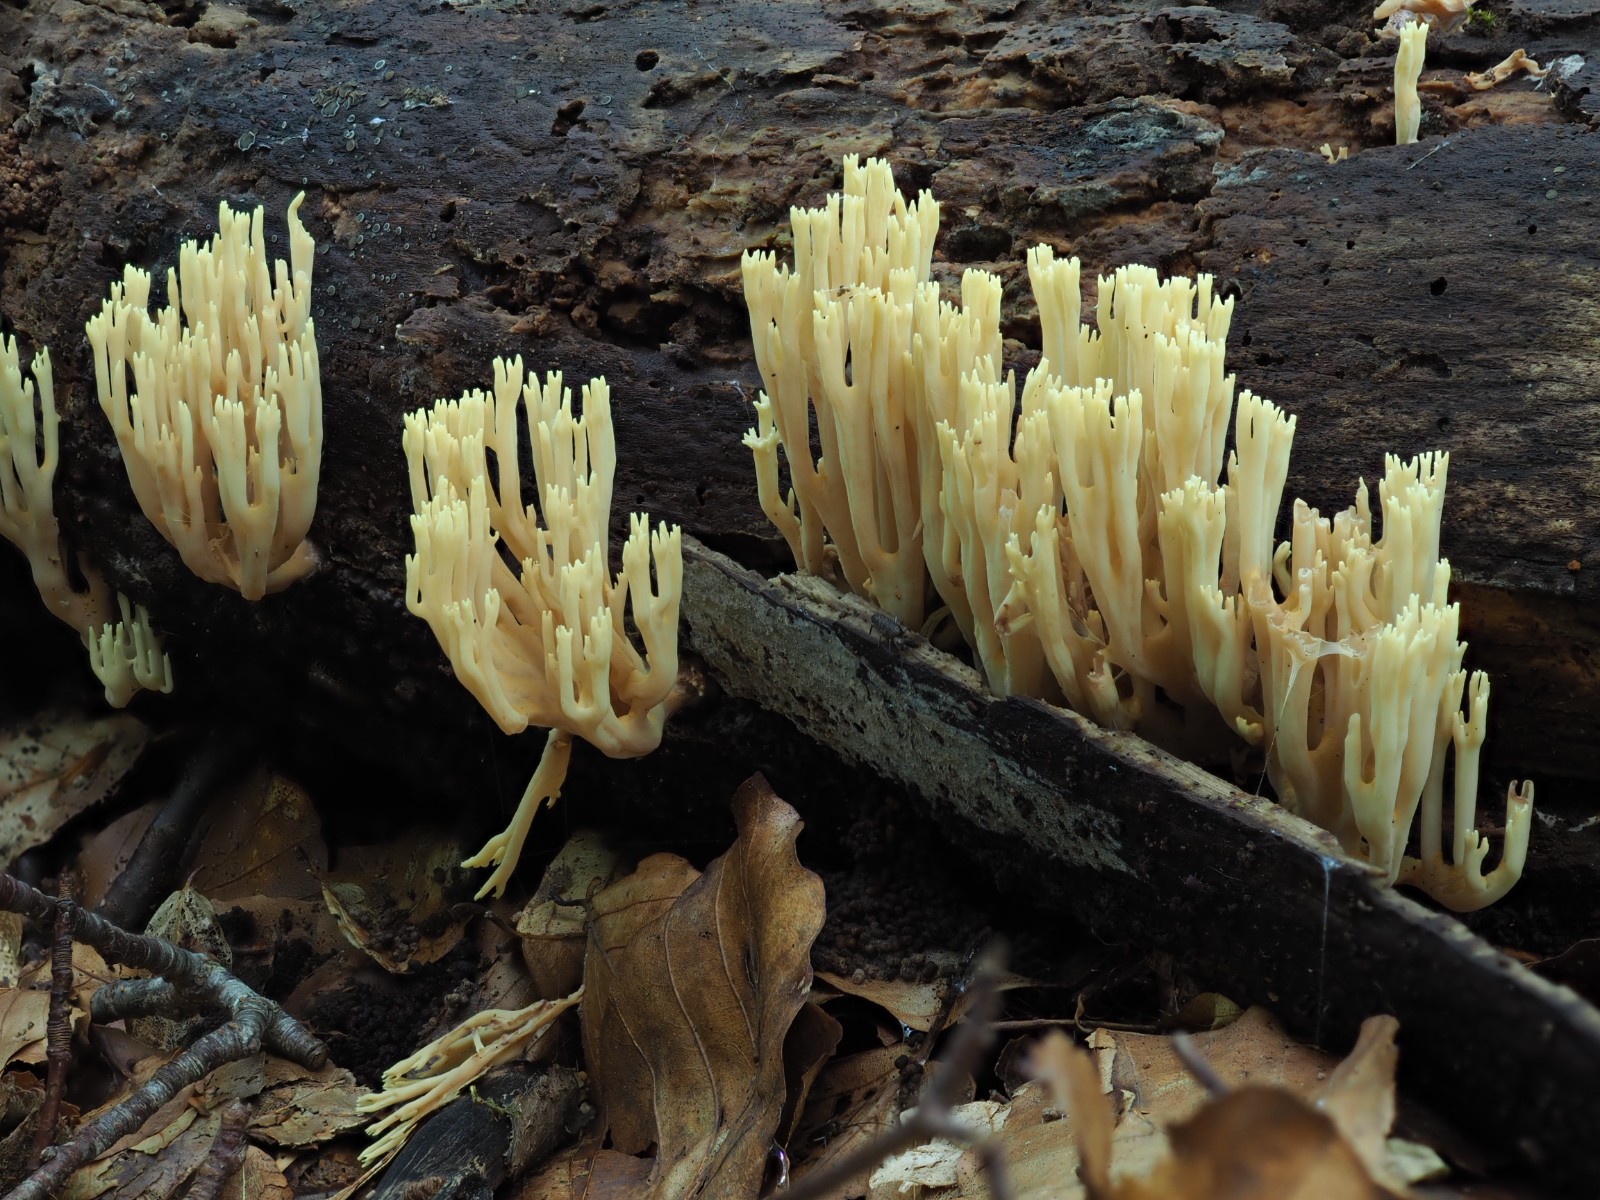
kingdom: Fungi
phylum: Basidiomycota
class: Agaricomycetes
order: Gomphales
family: Gomphaceae
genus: Ramaria
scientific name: Ramaria stricta
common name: rank koralsvamp
